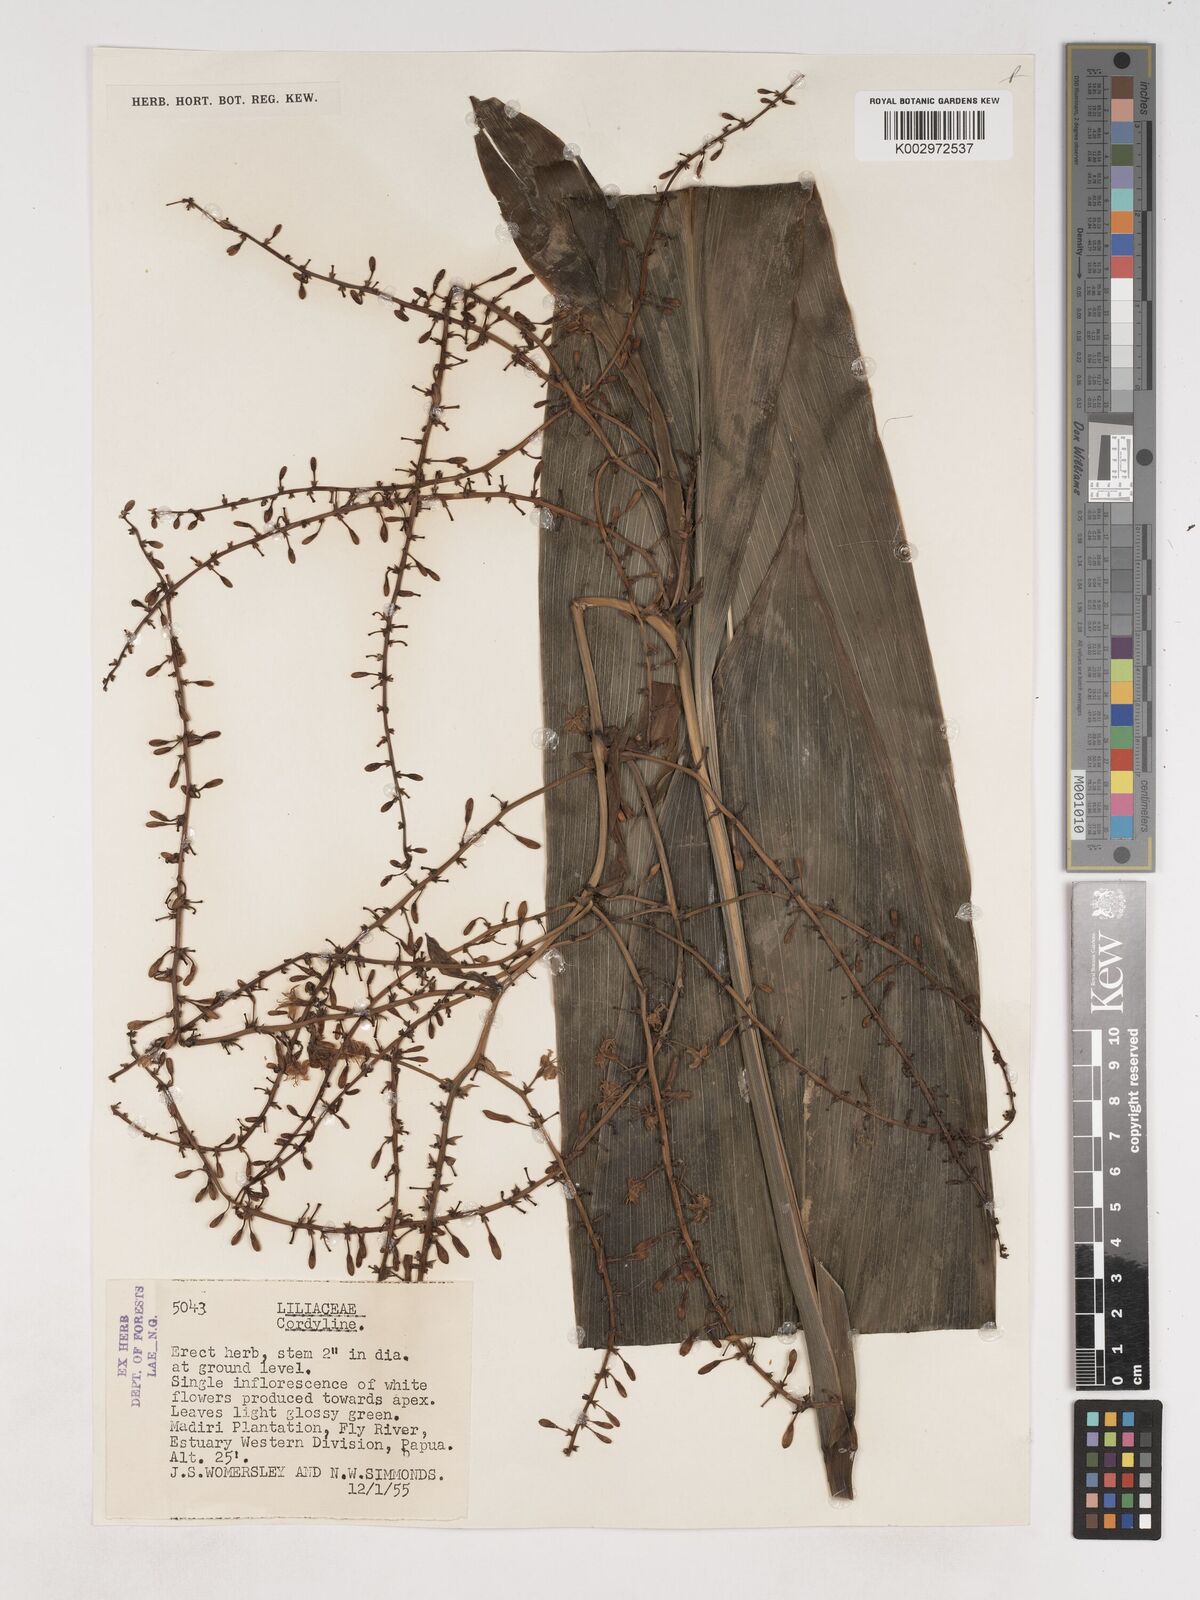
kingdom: Plantae
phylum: Tracheophyta
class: Liliopsida
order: Asparagales
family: Asparagaceae
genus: Cordyline
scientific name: Cordyline
